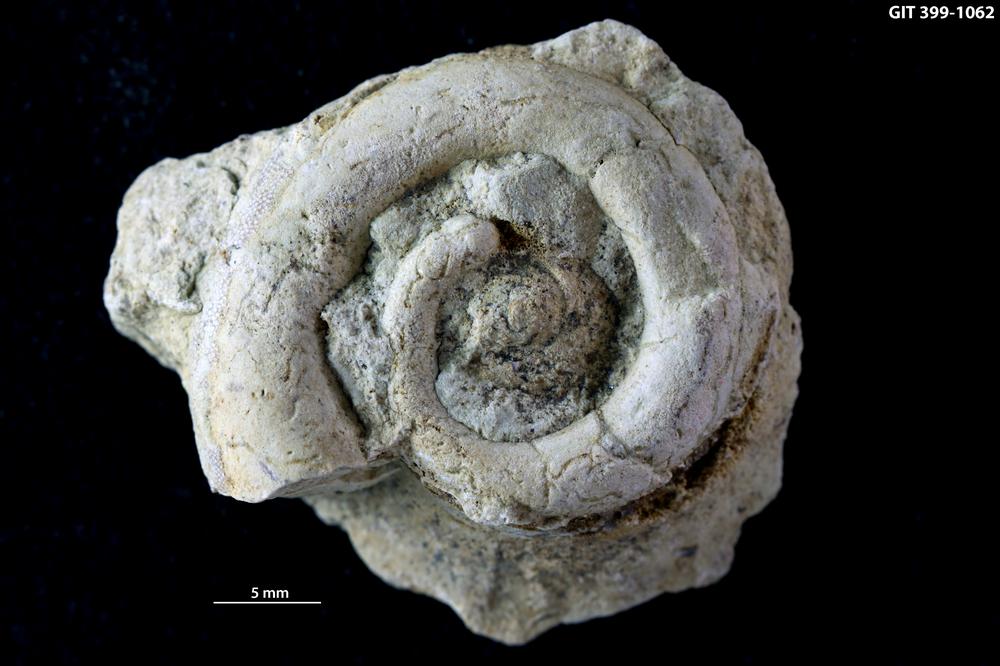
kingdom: Animalia
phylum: Mollusca
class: Gastropoda
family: Holopeidae
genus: Pachystrophia
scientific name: Pachystrophia Euomphalus devexus
